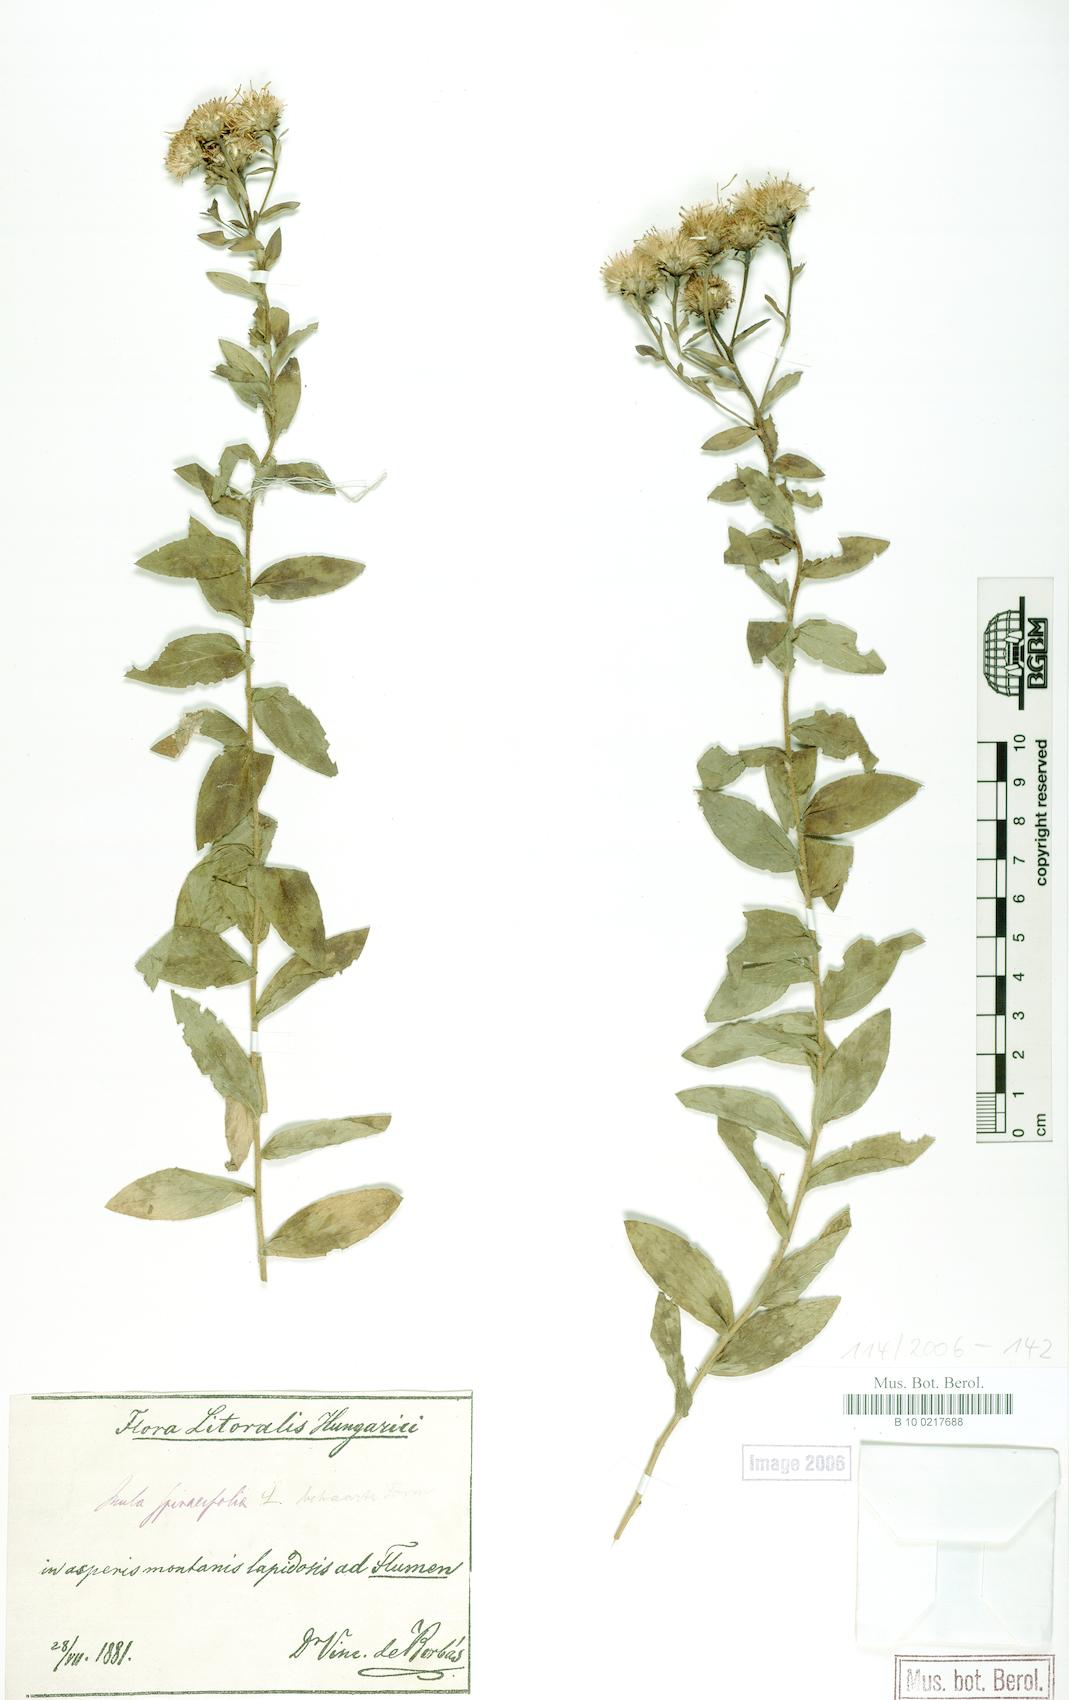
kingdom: Plantae
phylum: Tracheophyta
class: Magnoliopsida
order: Asterales
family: Asteraceae
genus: Pentanema
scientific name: Pentanema spiraeifolium
